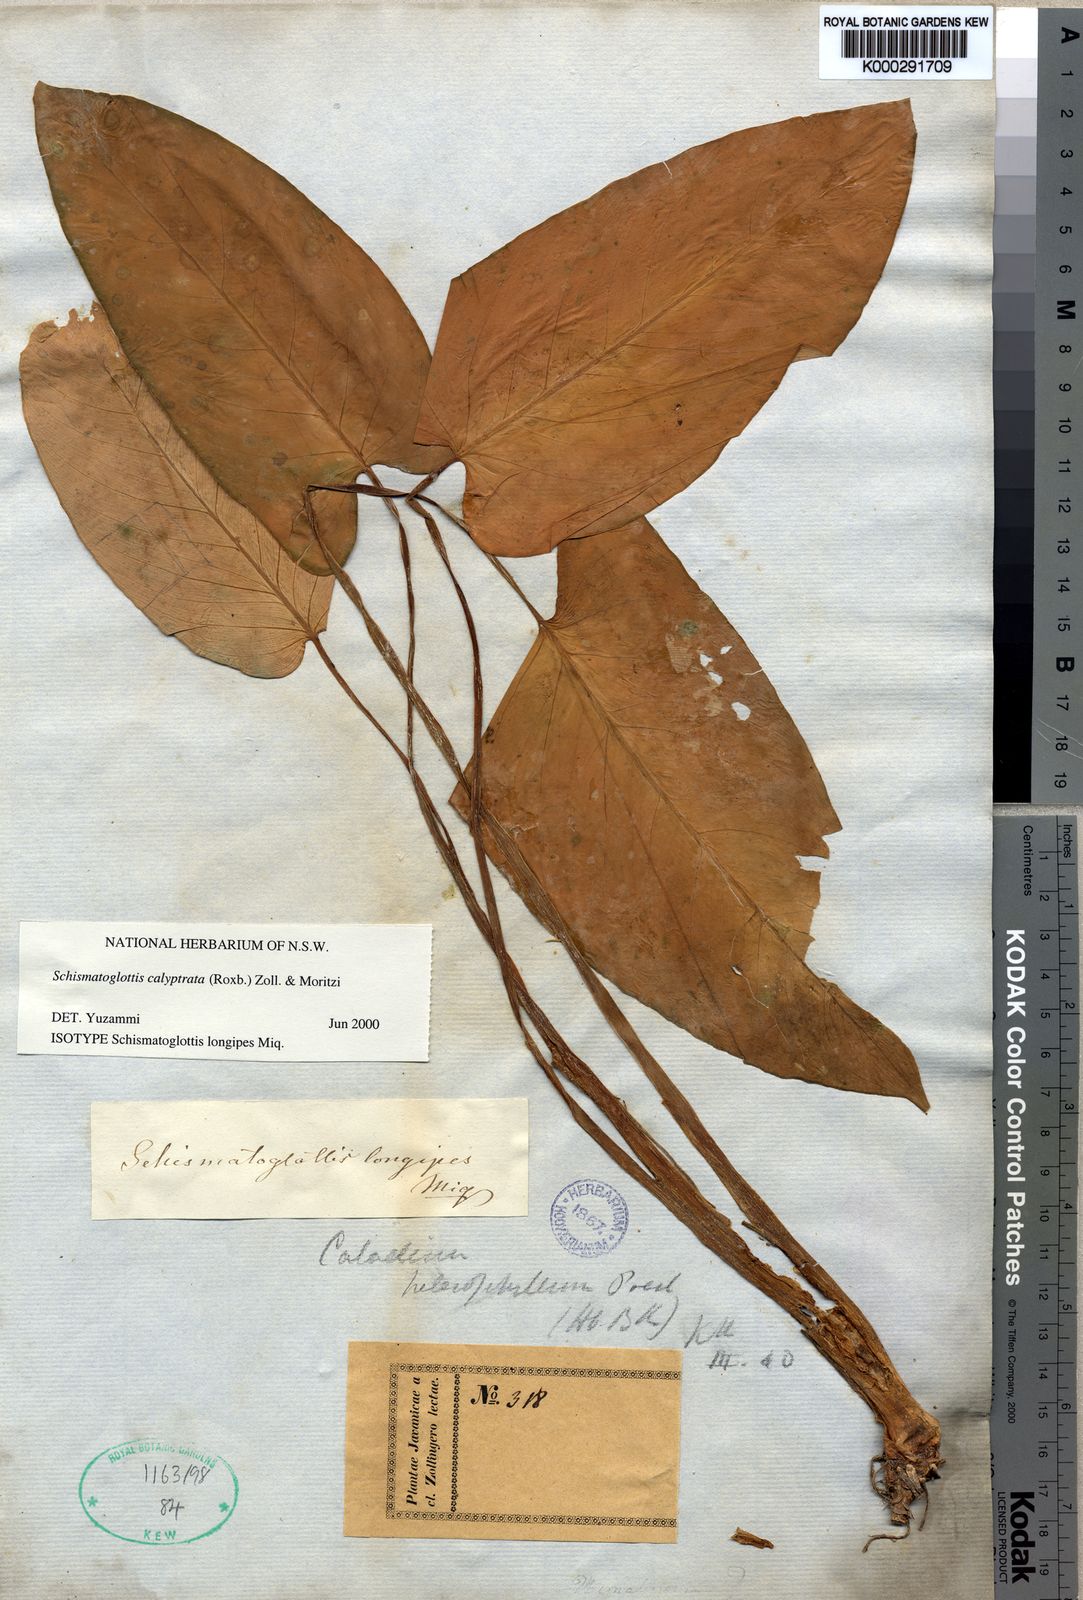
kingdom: Plantae
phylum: Tracheophyta
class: Liliopsida
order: Alismatales
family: Araceae
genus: Schismatoglottis
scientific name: Schismatoglottis calyptrata
